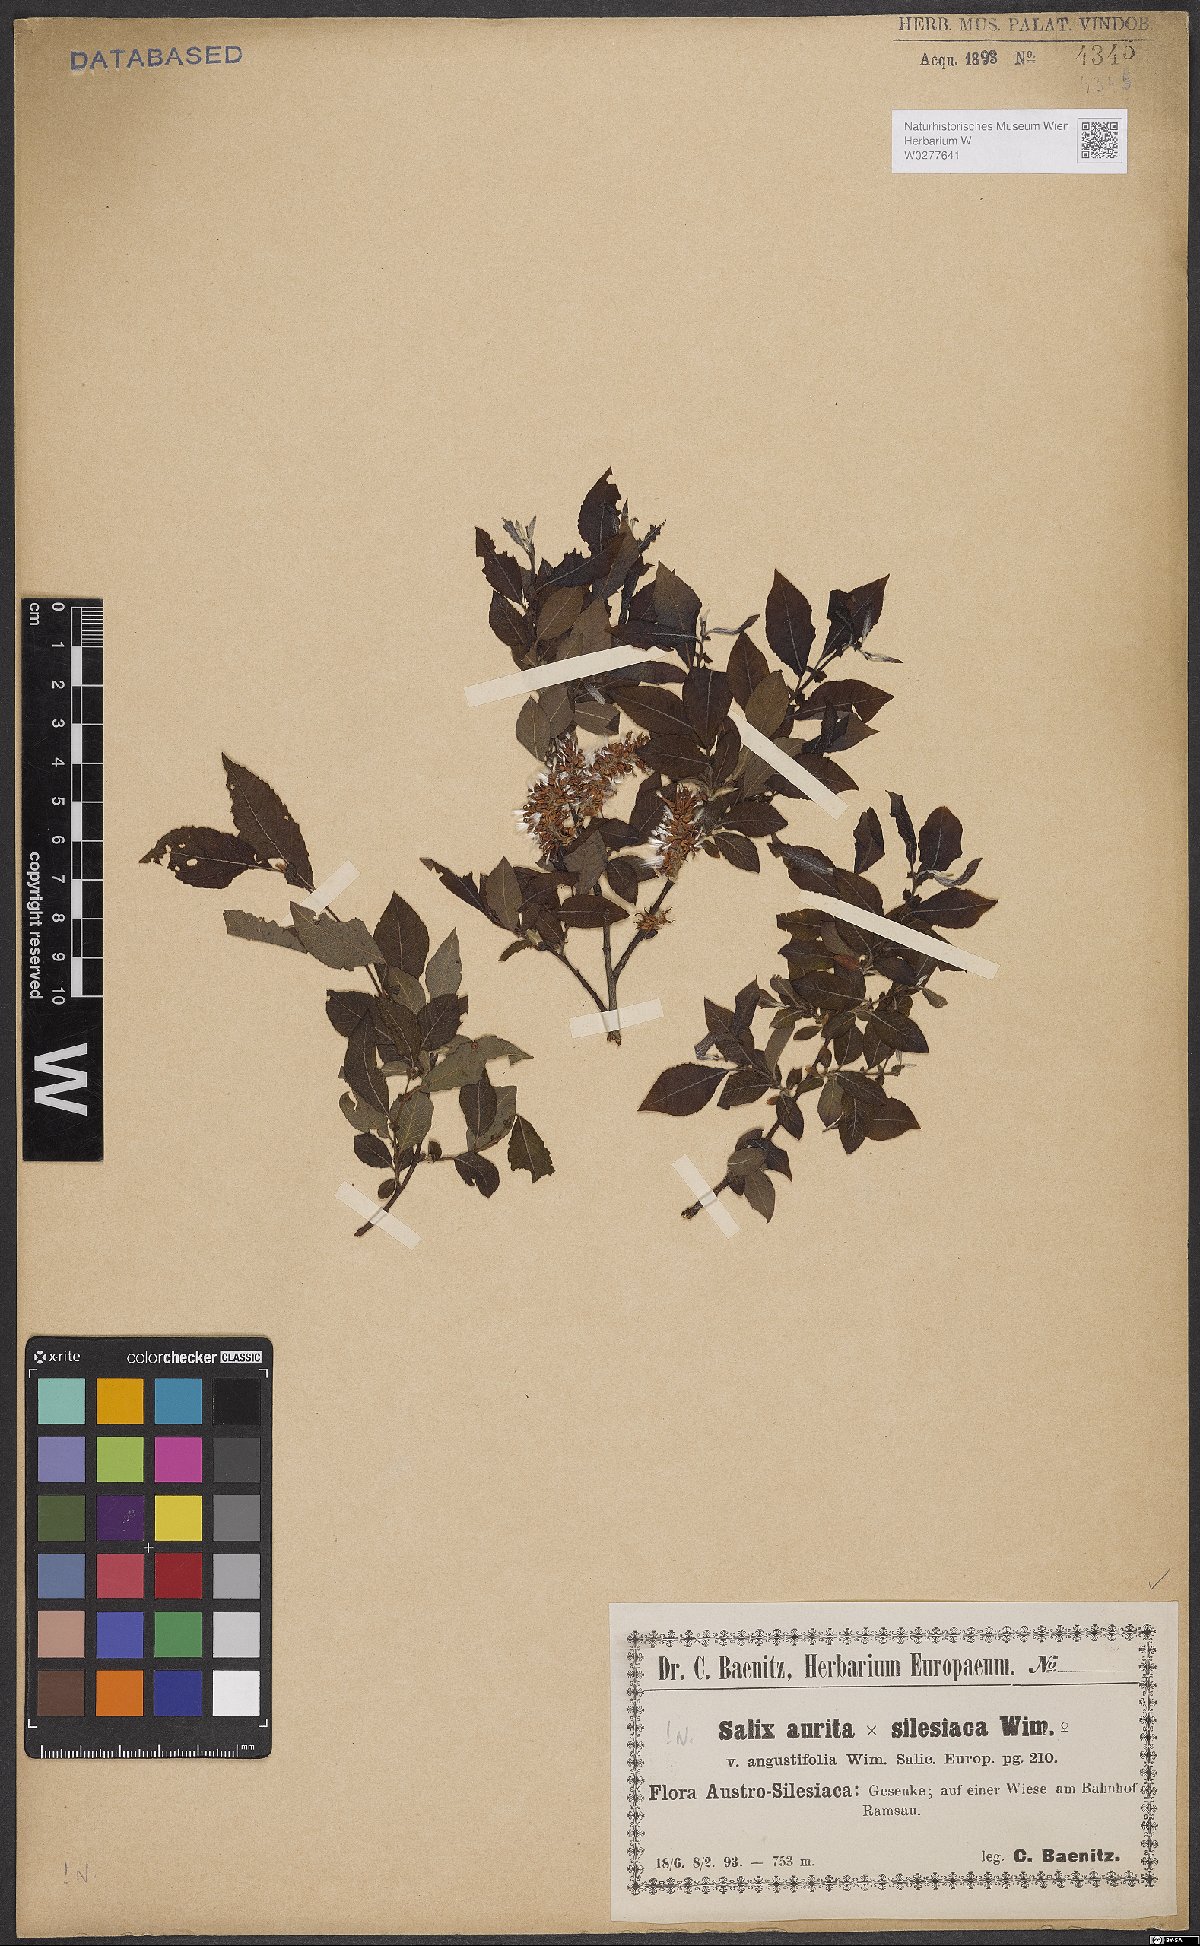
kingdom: Plantae
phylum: Tracheophyta
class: Magnoliopsida
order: Malpighiales
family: Salicaceae
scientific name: Salicaceae
